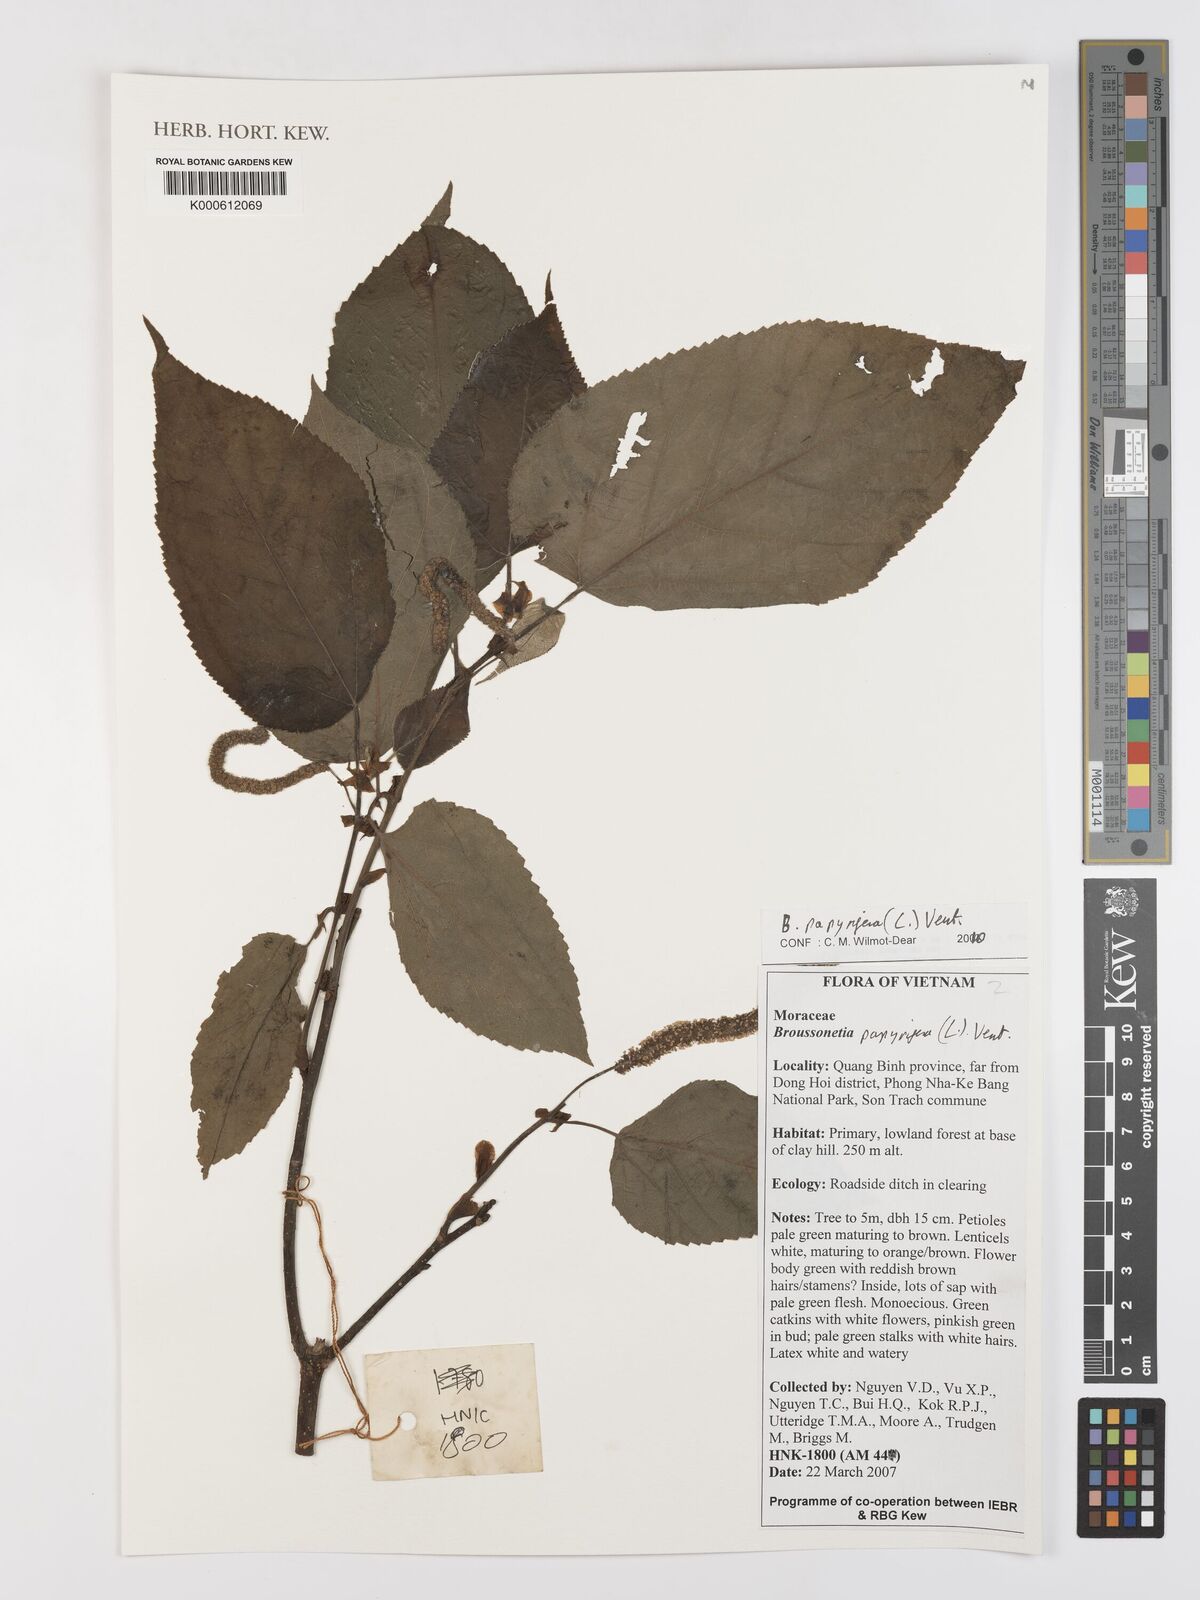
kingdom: Plantae
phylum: Tracheophyta
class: Magnoliopsida
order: Rosales
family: Moraceae
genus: Broussonetia
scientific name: Broussonetia papyrifera
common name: Paper mulberry
